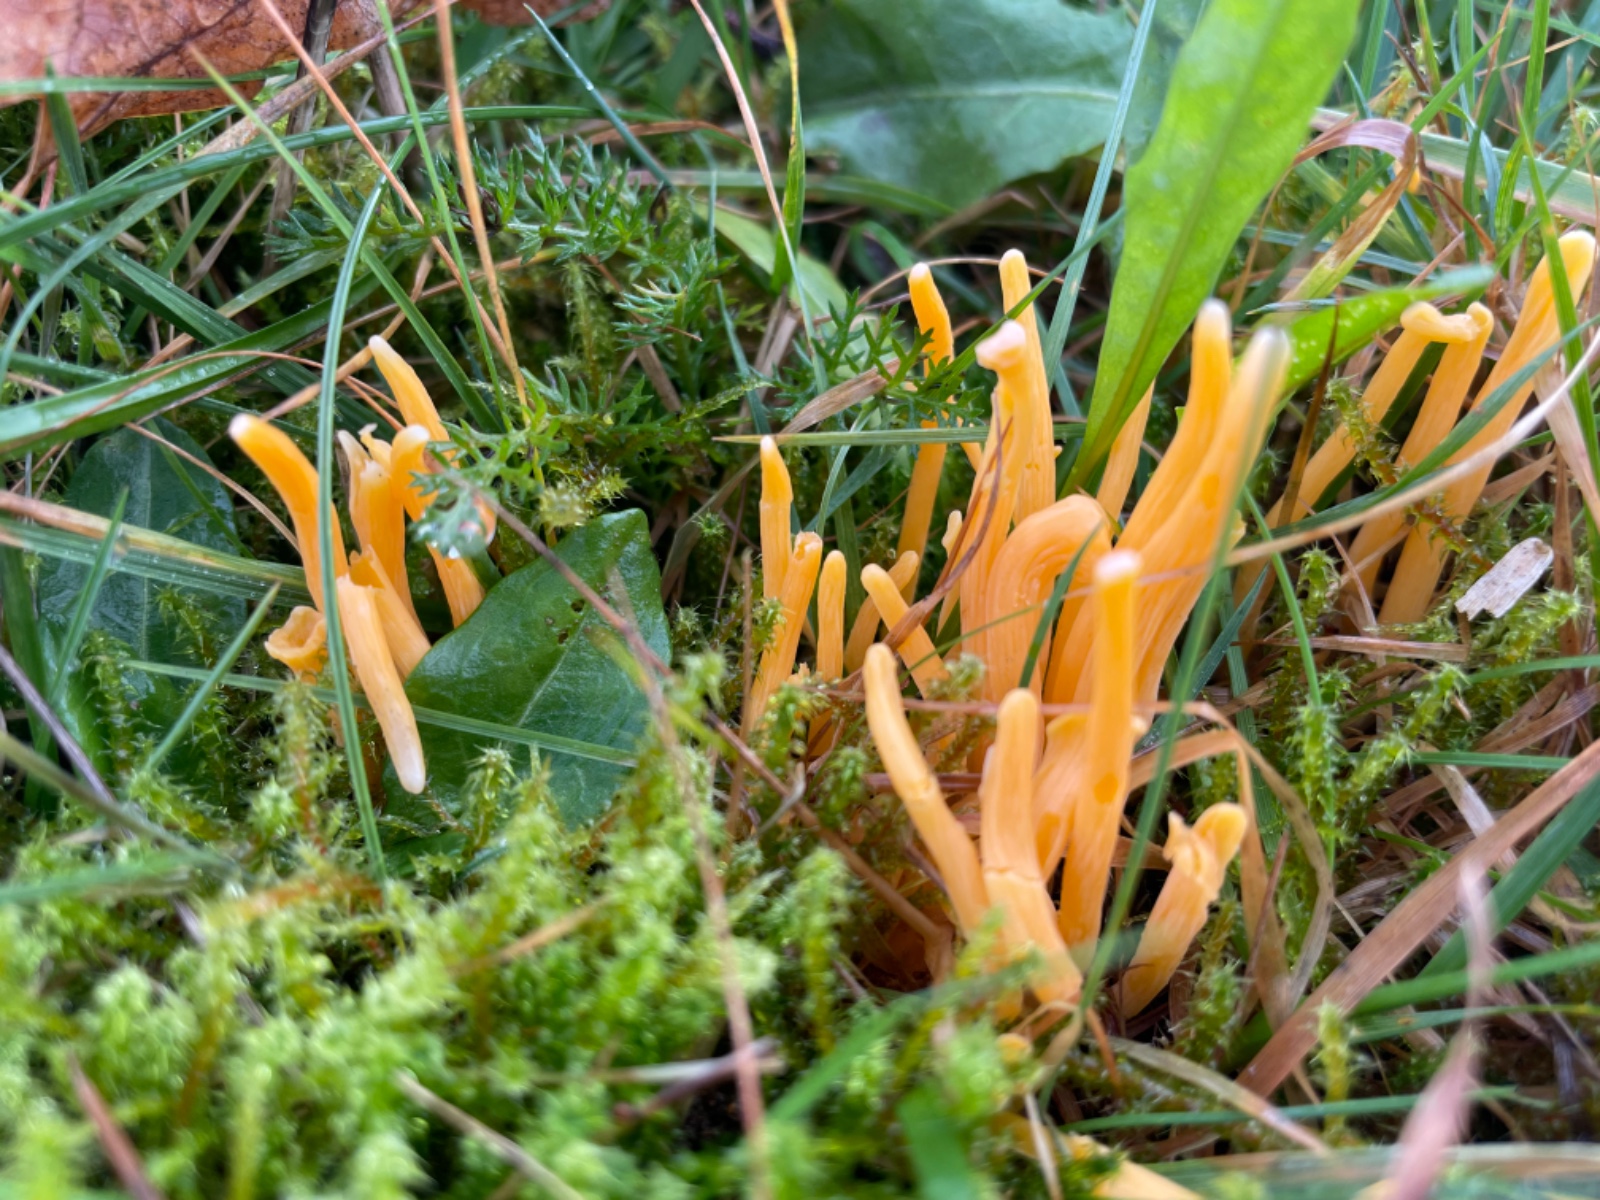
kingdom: Fungi
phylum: Basidiomycota
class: Agaricomycetes
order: Agaricales
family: Clavariaceae
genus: Clavulinopsis
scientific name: Clavulinopsis
